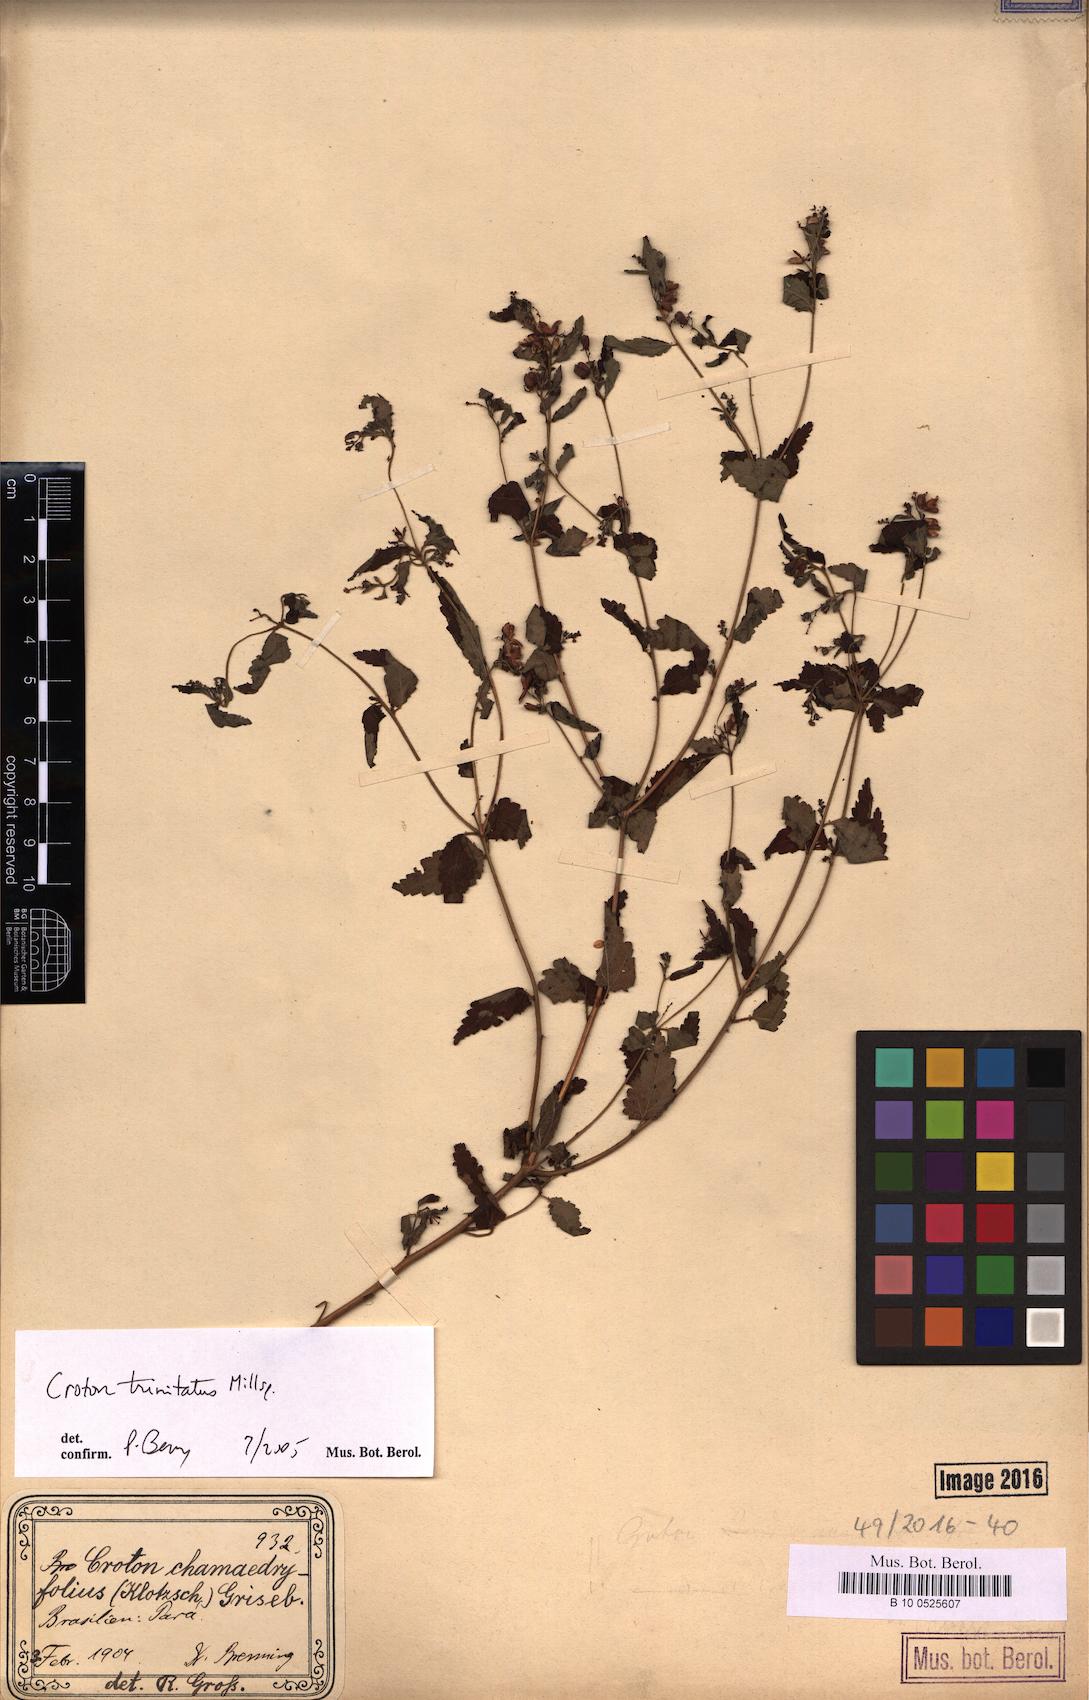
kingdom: Plantae
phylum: Tracheophyta
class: Magnoliopsida
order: Malpighiales
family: Euphorbiaceae
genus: Croton
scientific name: Croton trinitatis
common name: Roadside croton
